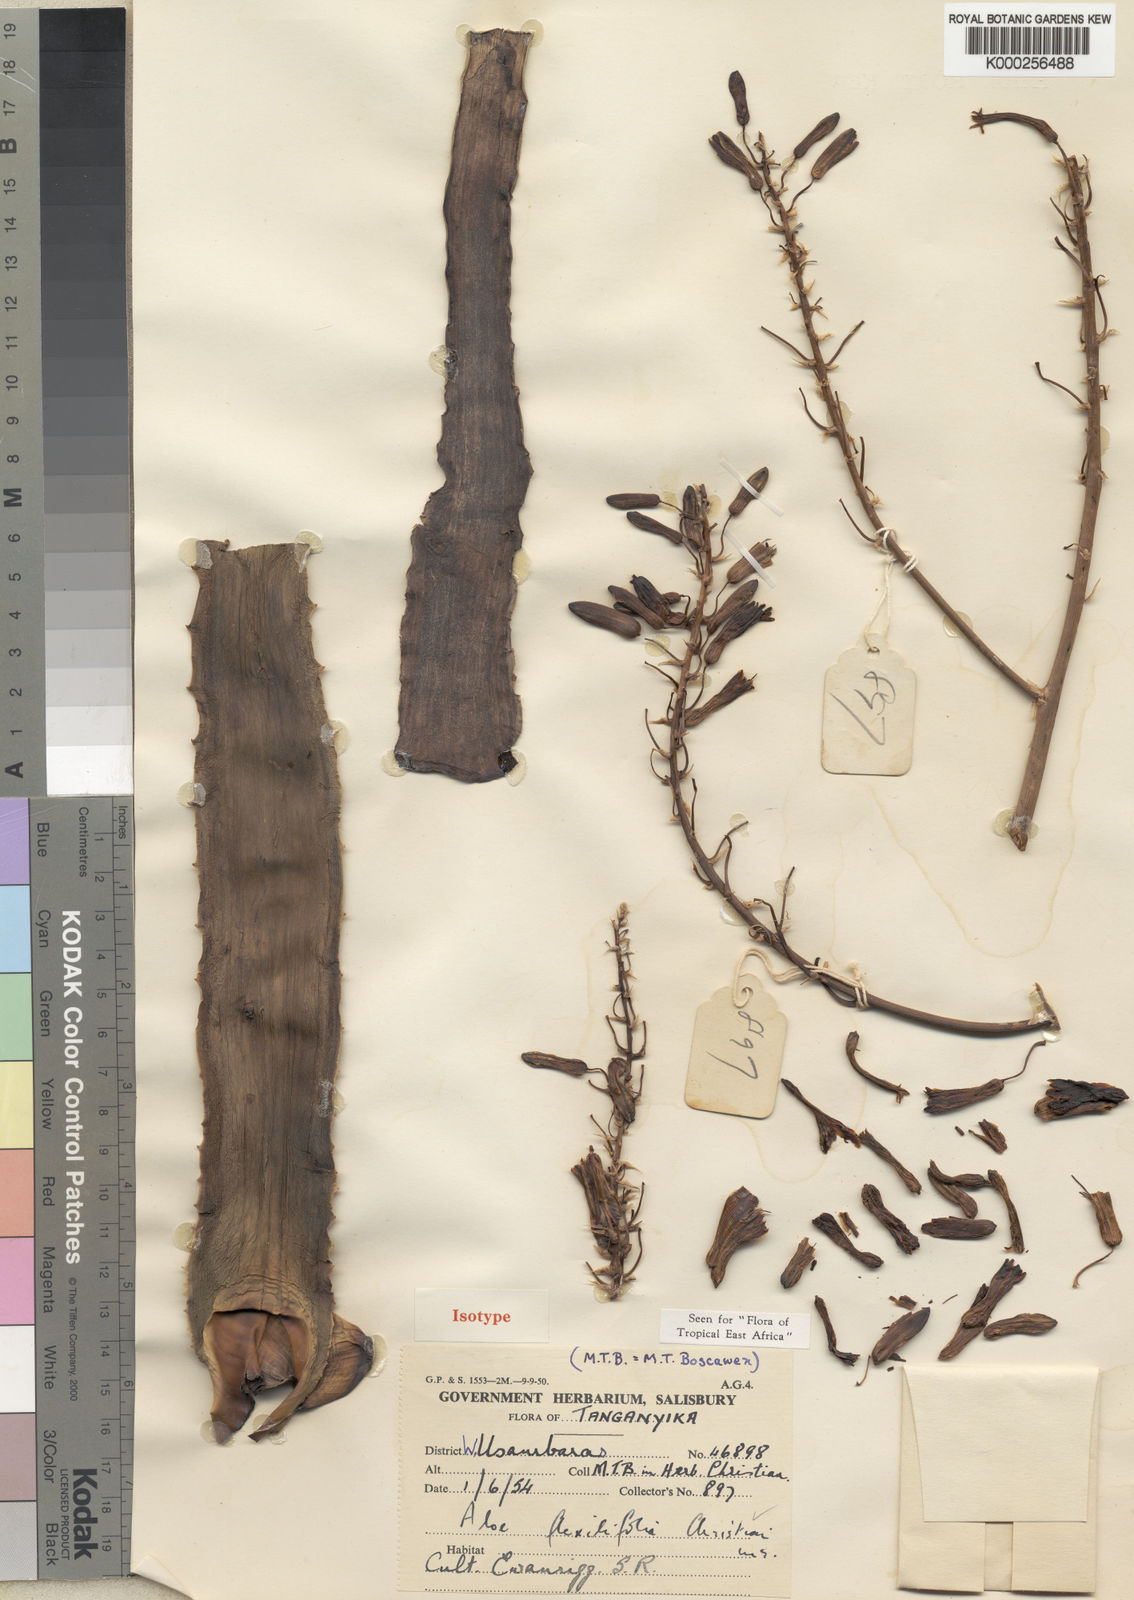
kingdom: Plantae
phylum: Tracheophyta
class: Liliopsida
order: Asparagales
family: Asphodelaceae
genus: Aloe
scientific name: Aloe flexilifolia
